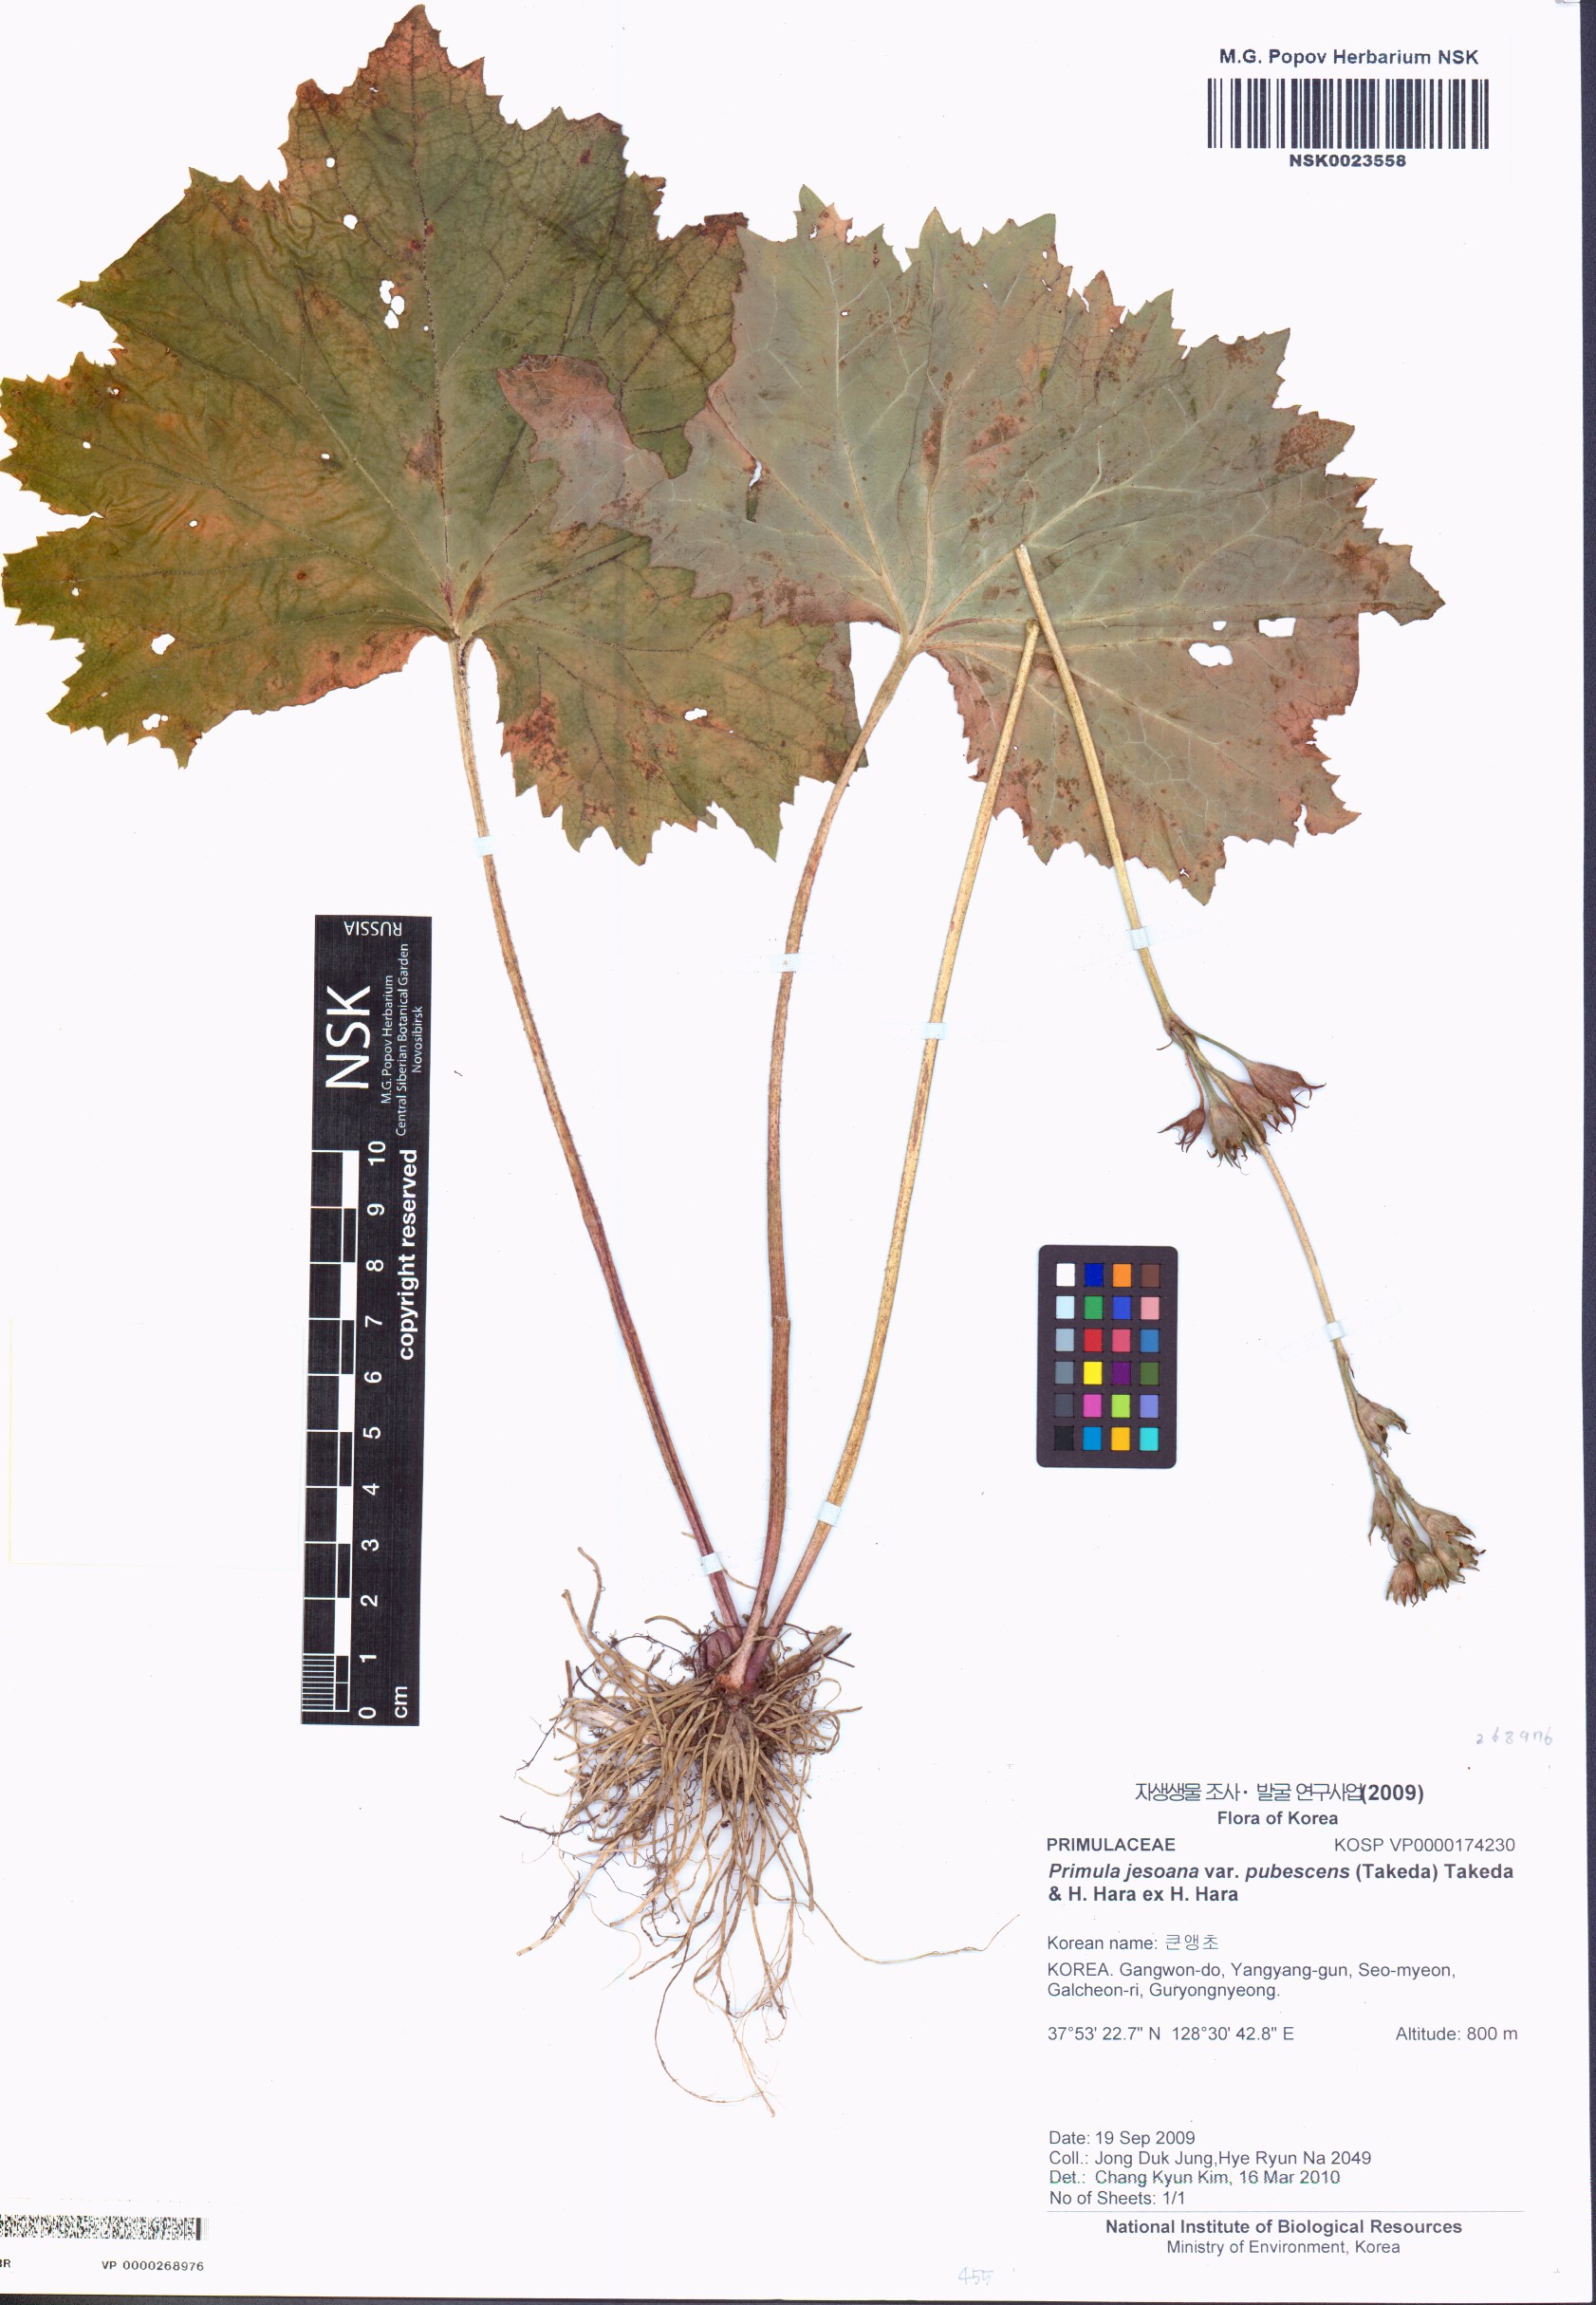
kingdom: Plantae
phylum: Tracheophyta
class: Magnoliopsida
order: Ericales
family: Primulaceae
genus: Primula
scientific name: Primula jesoana
